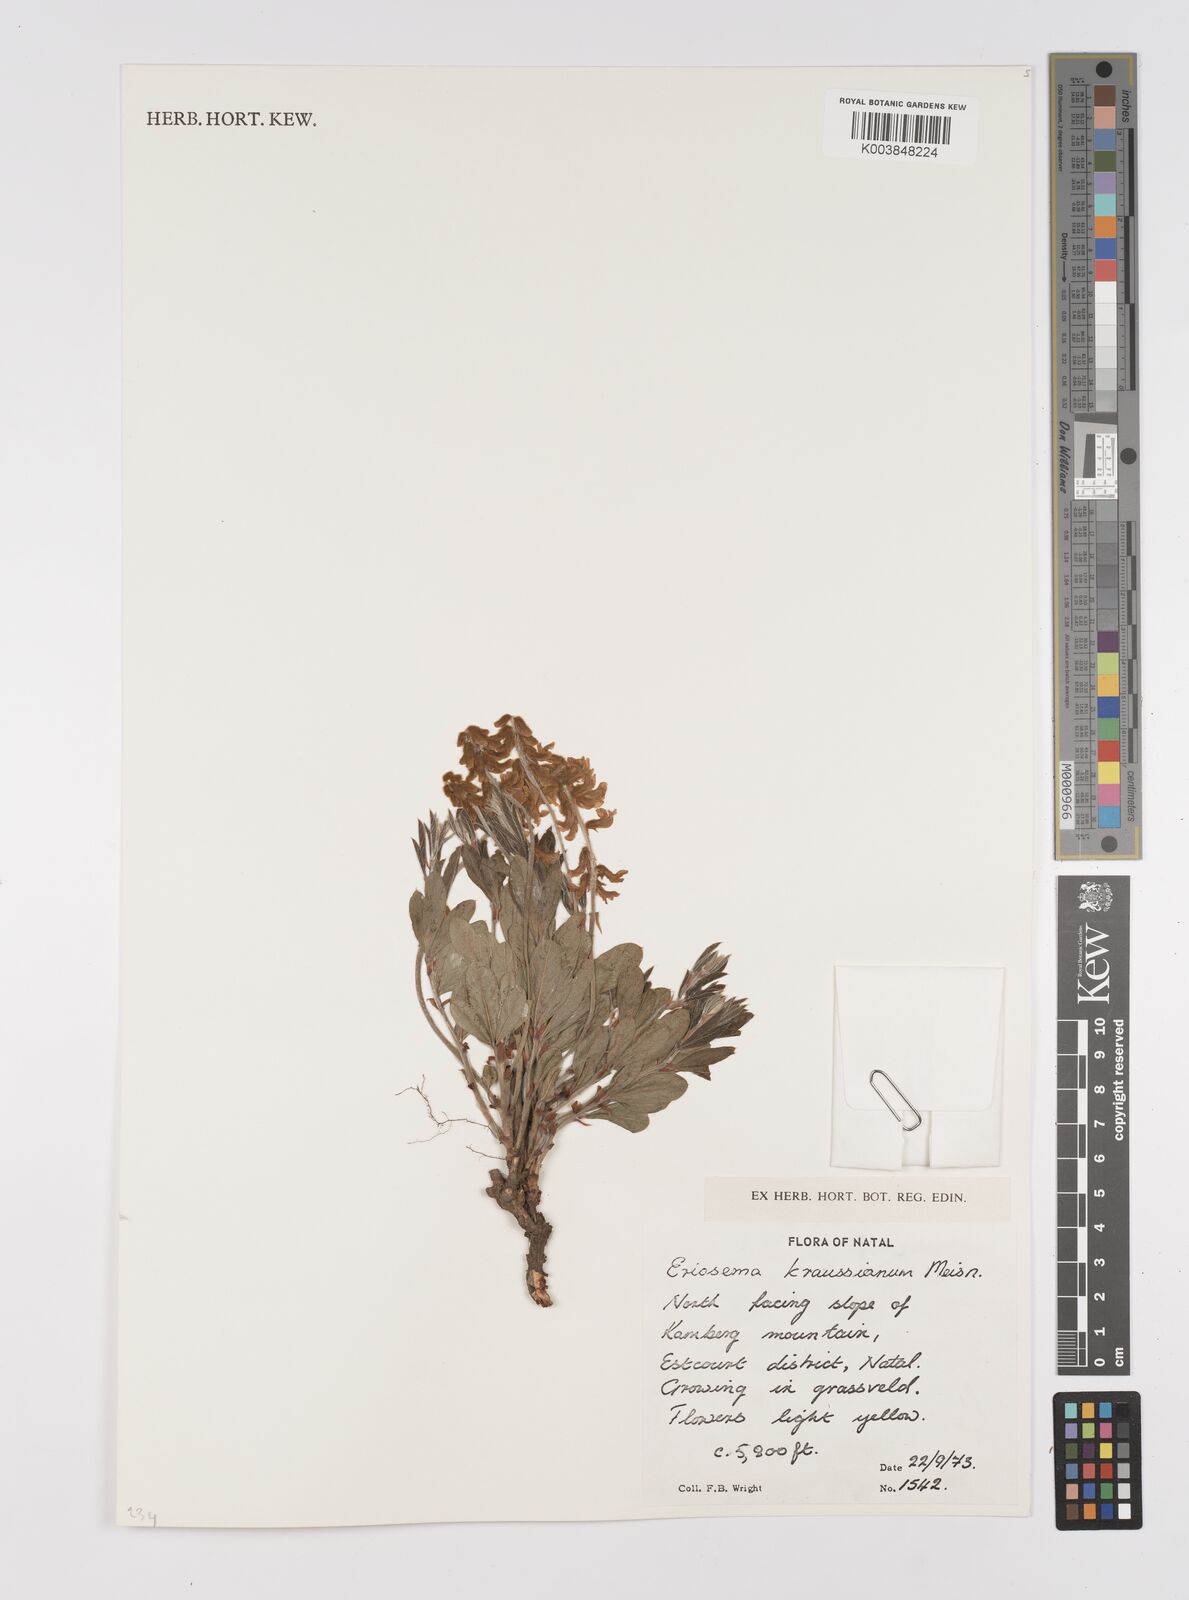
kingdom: Plantae
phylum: Tracheophyta
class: Magnoliopsida
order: Fabales
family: Fabaceae
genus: Eriosema
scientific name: Eriosema kraussianum
